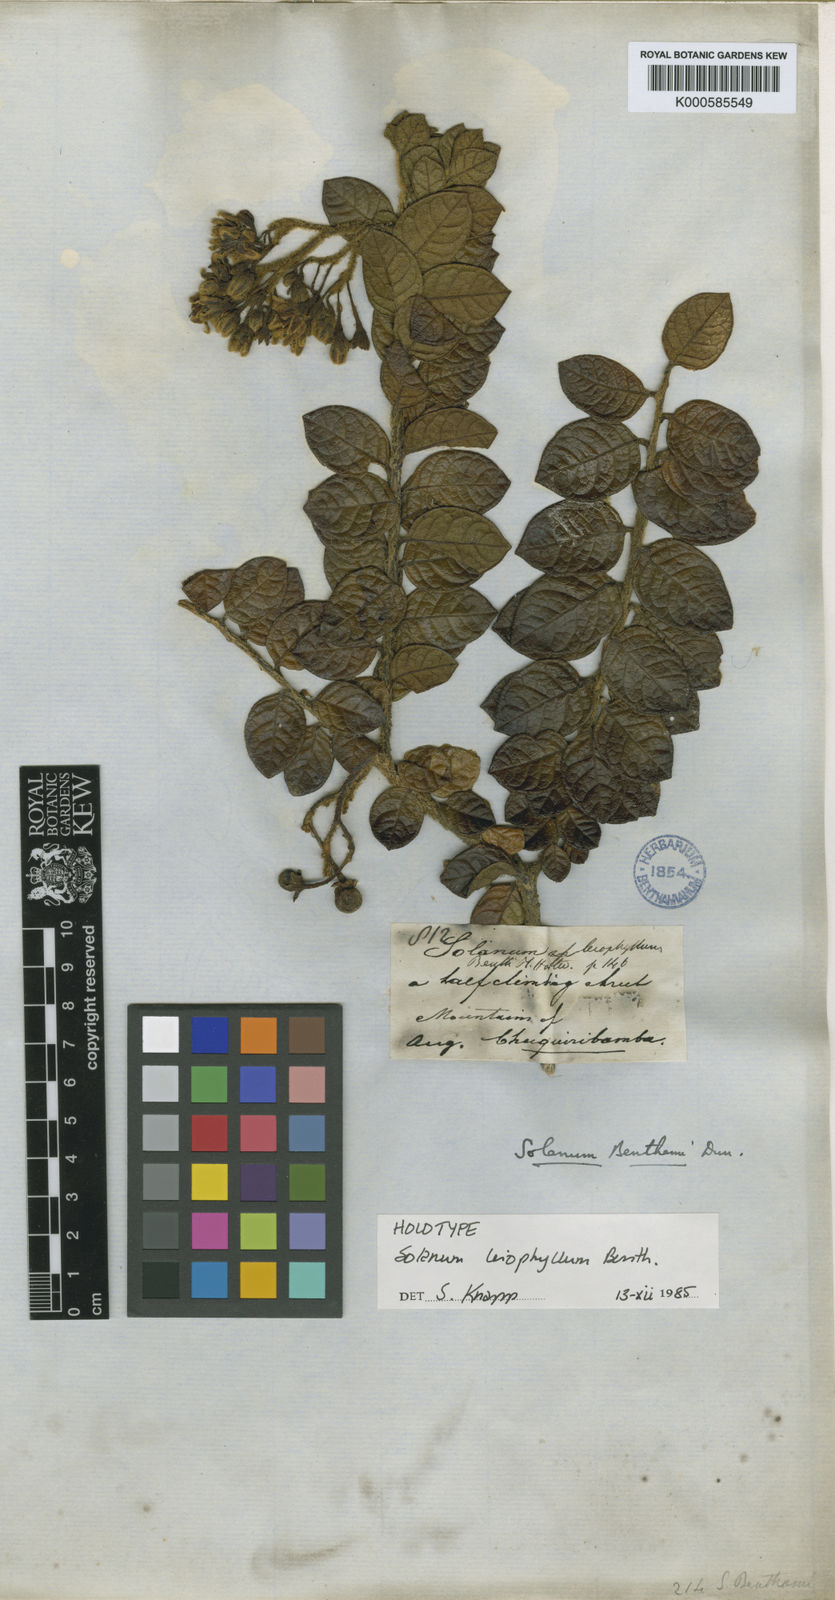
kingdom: Plantae
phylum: Tracheophyta
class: Magnoliopsida
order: Solanales
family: Solanaceae
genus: Solanum
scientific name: Solanum leiophyllum
